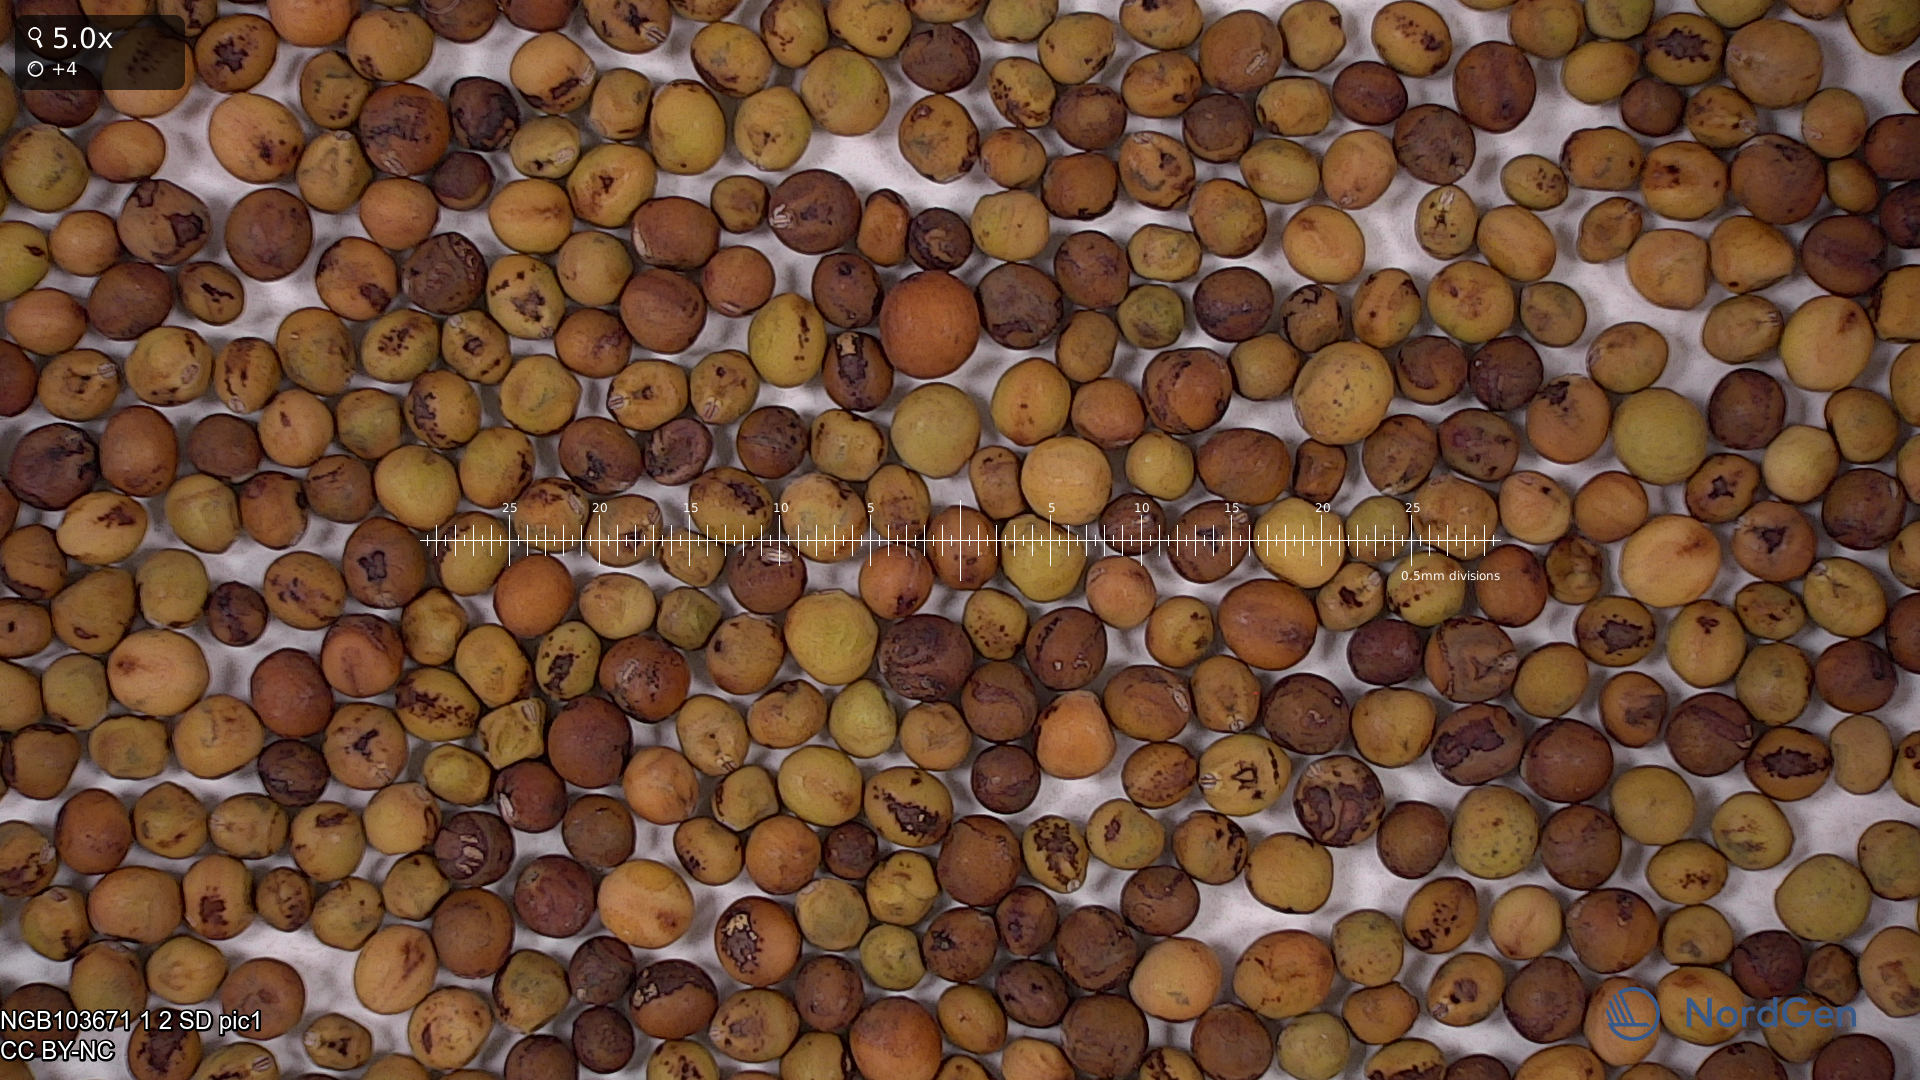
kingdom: Plantae
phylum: Tracheophyta
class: Magnoliopsida
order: Fabales
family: Fabaceae
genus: Lathyrus
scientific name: Lathyrus oleraceus
